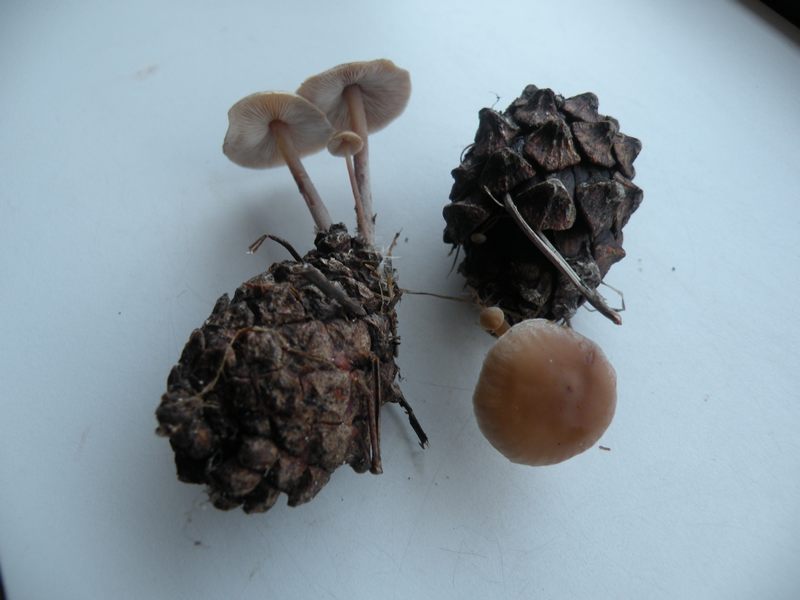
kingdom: Fungi
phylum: Basidiomycota
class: Agaricomycetes
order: Agaricales
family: Marasmiaceae
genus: Baeospora
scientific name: Baeospora myosura
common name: koglebruskhat
